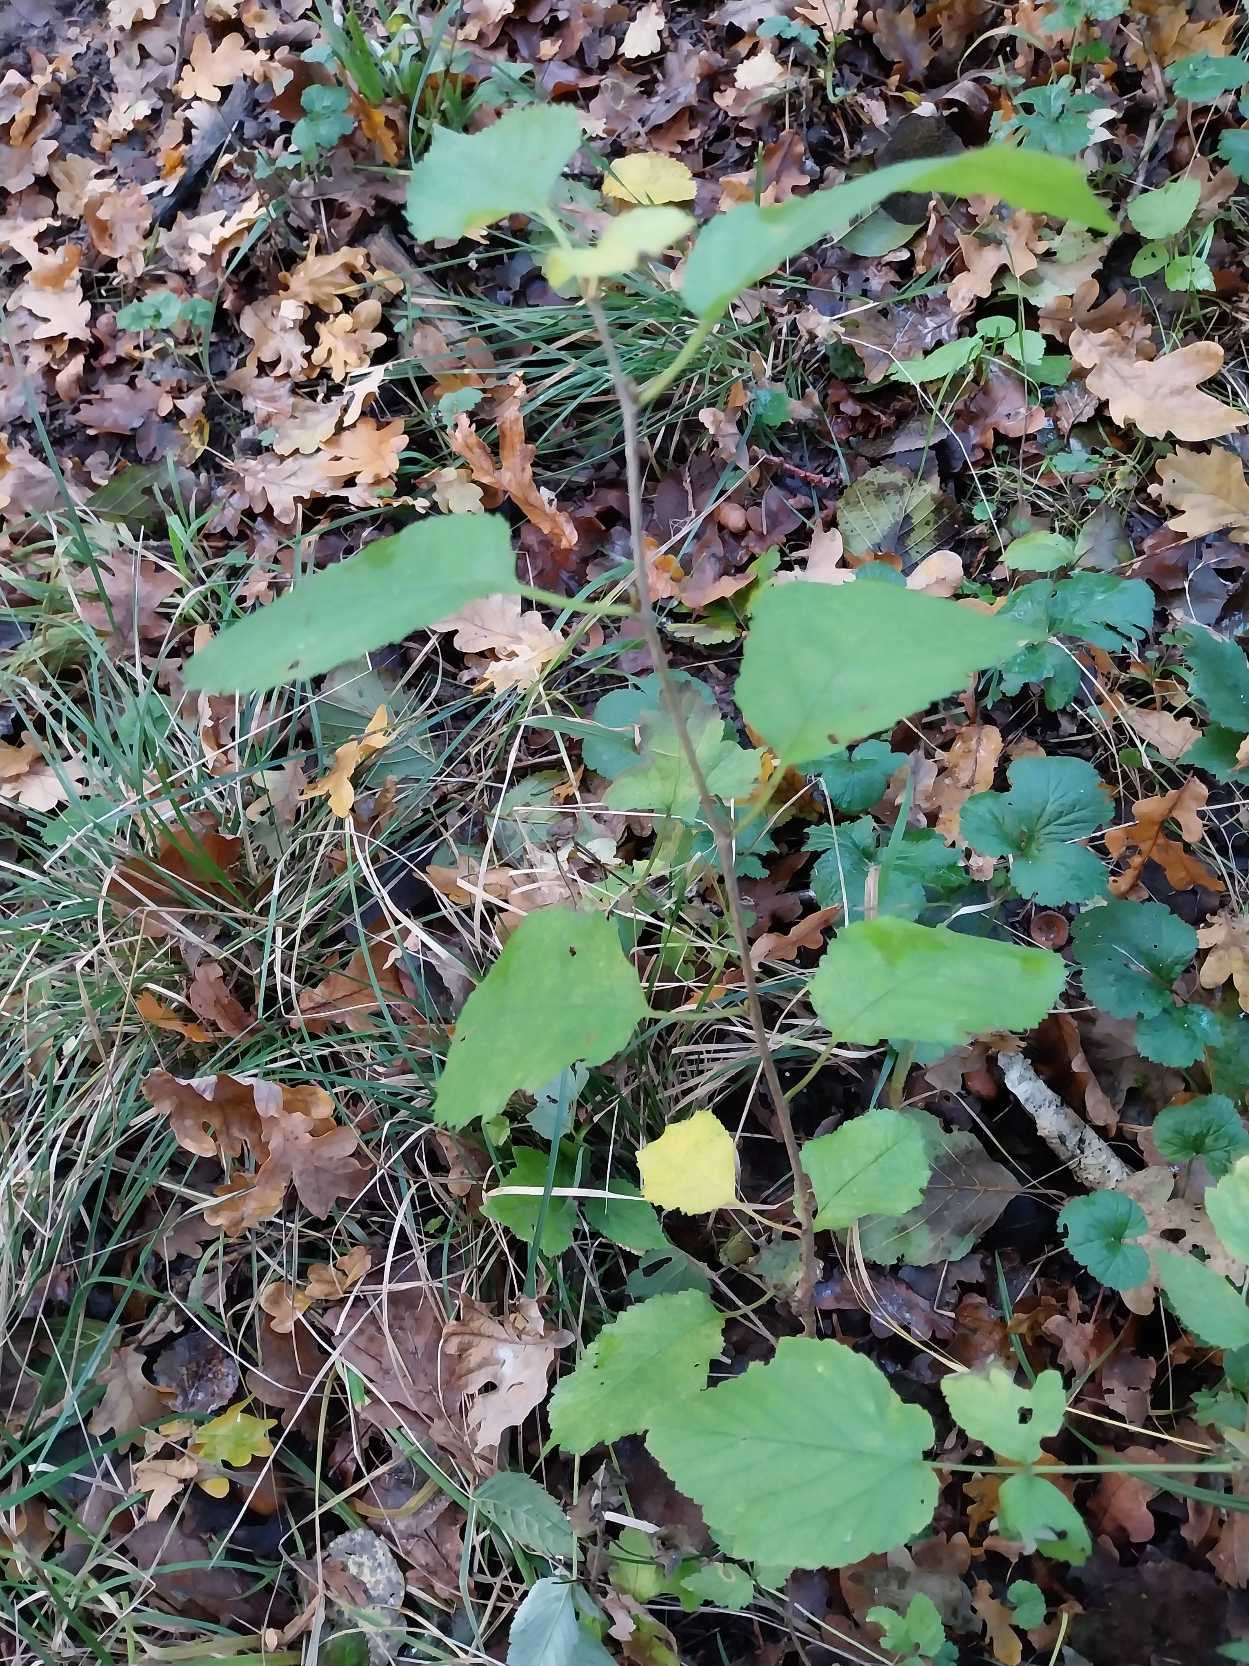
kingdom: Plantae
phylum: Tracheophyta
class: Magnoliopsida
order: Rosales
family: Rosaceae
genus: Prunus
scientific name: Prunus avium
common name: Fugle-kirsebær
